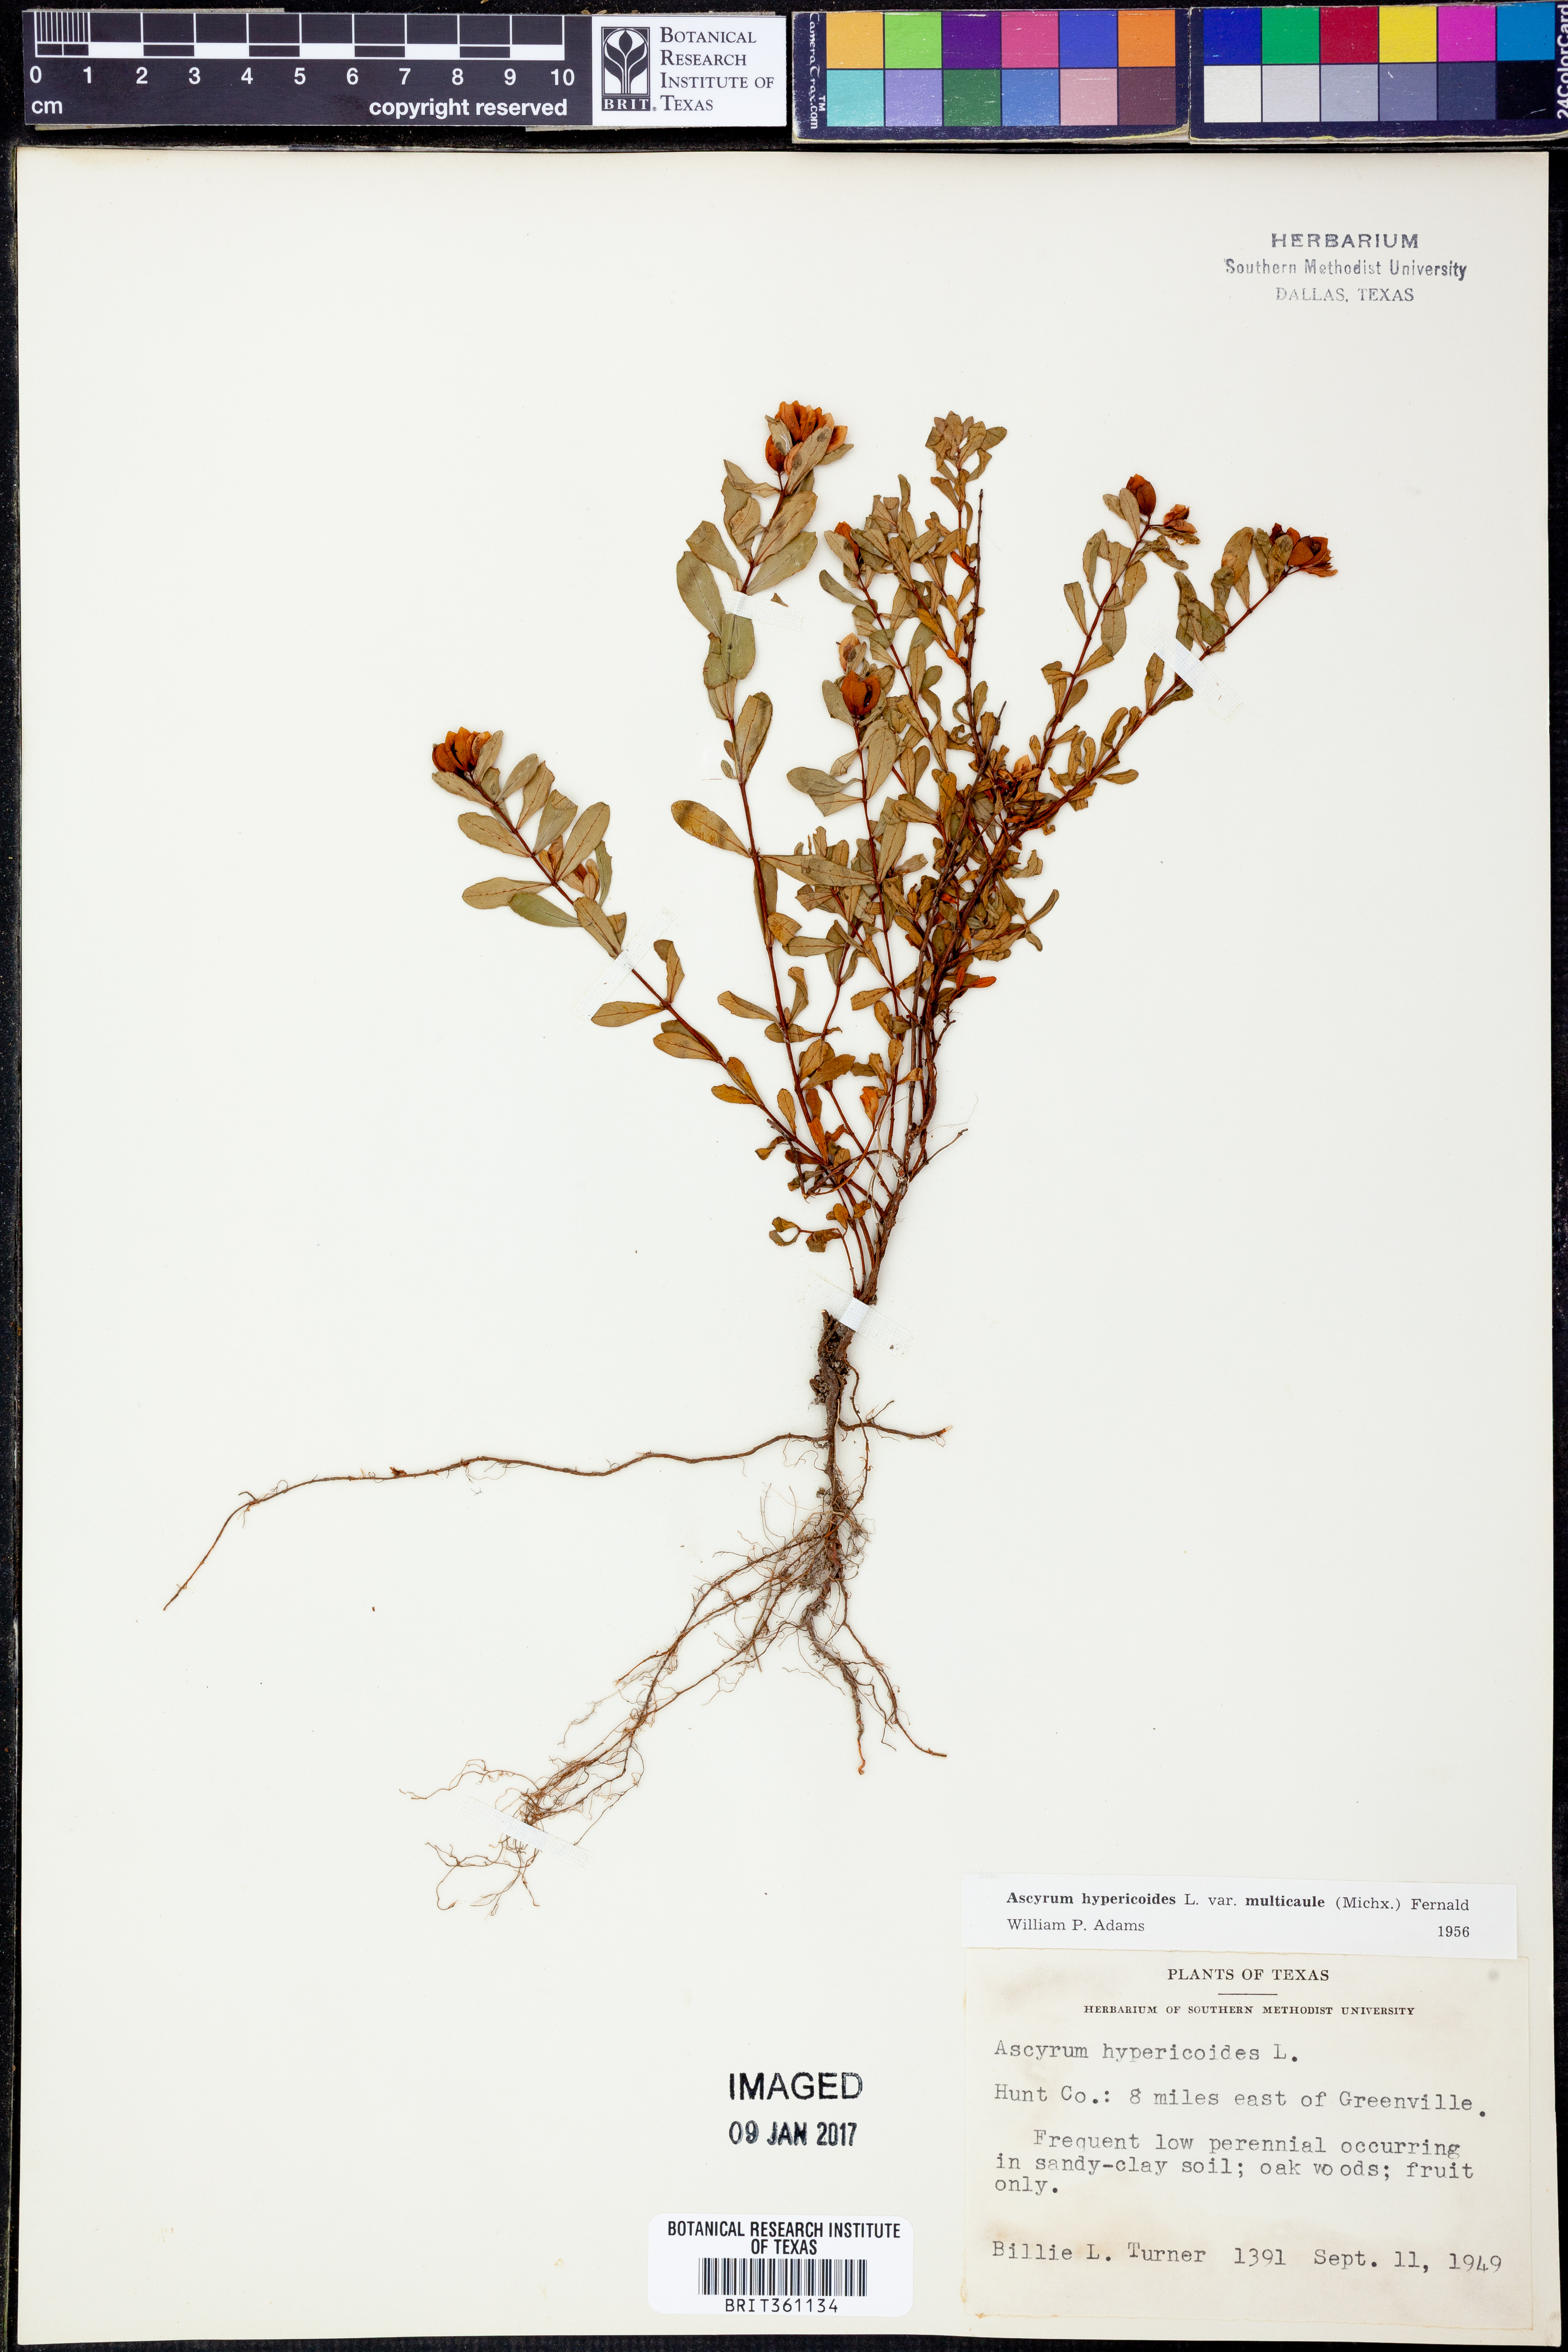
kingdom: Plantae
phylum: Tracheophyta
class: Magnoliopsida
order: Malpighiales
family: Hypericaceae
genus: Hypericum
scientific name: Hypericum hypericoides
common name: St. andrew's cross
